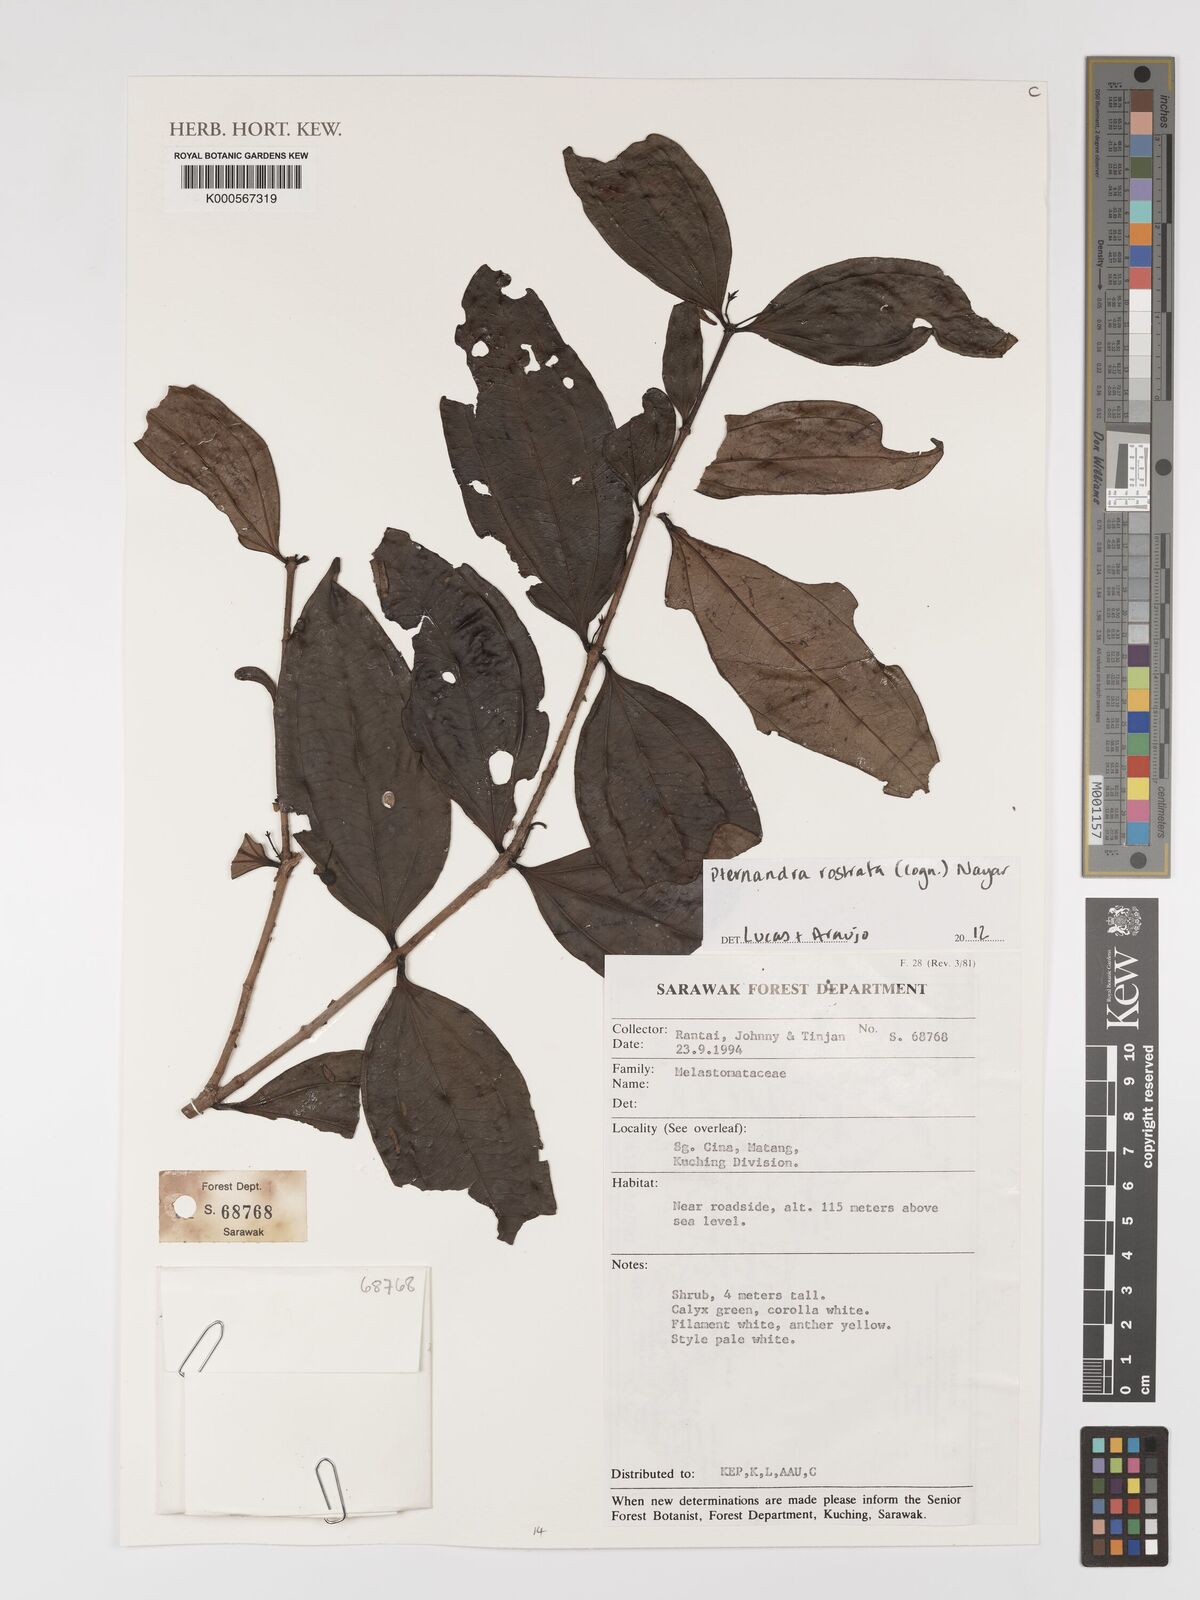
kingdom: Plantae
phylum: Tracheophyta
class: Magnoliopsida
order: Myrtales
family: Melastomataceae
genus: Pternandra
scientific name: Pternandra rostrata
